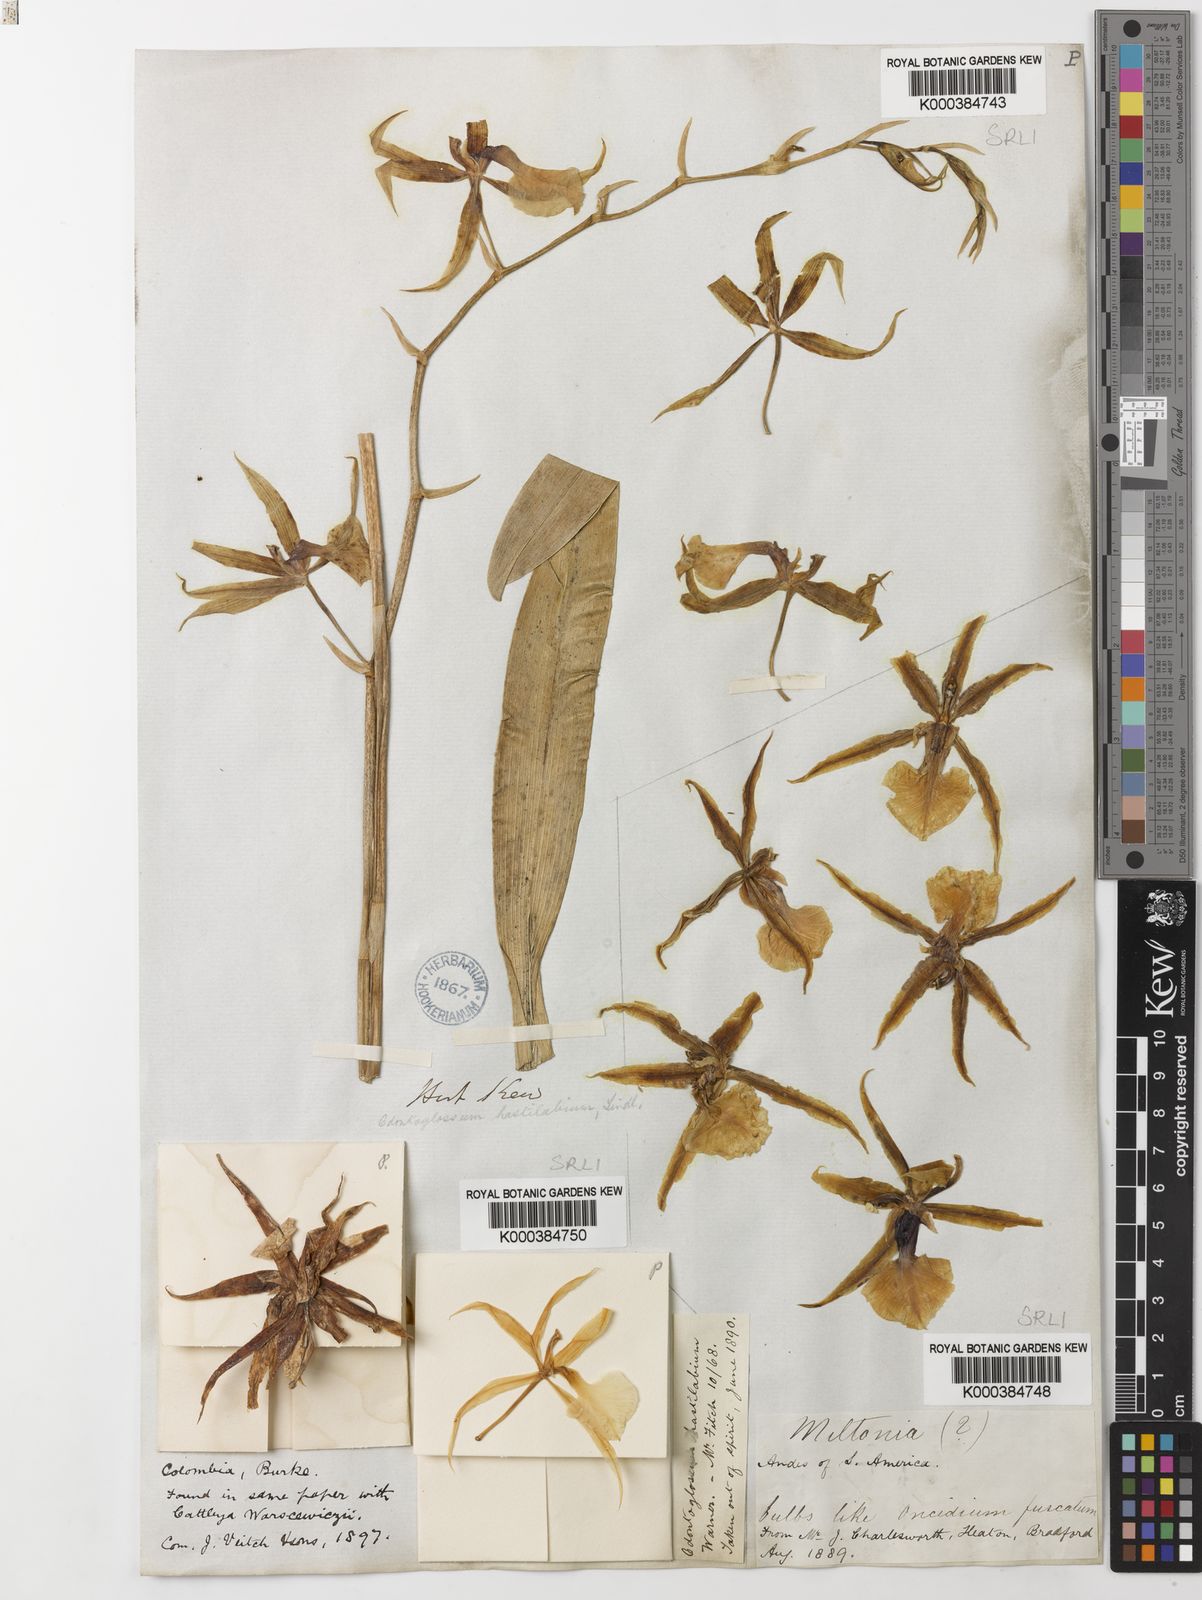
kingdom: Plantae
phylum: Tracheophyta
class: Liliopsida
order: Asparagales
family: Orchidaceae
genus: Oncidium
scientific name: Oncidium hastilabium
